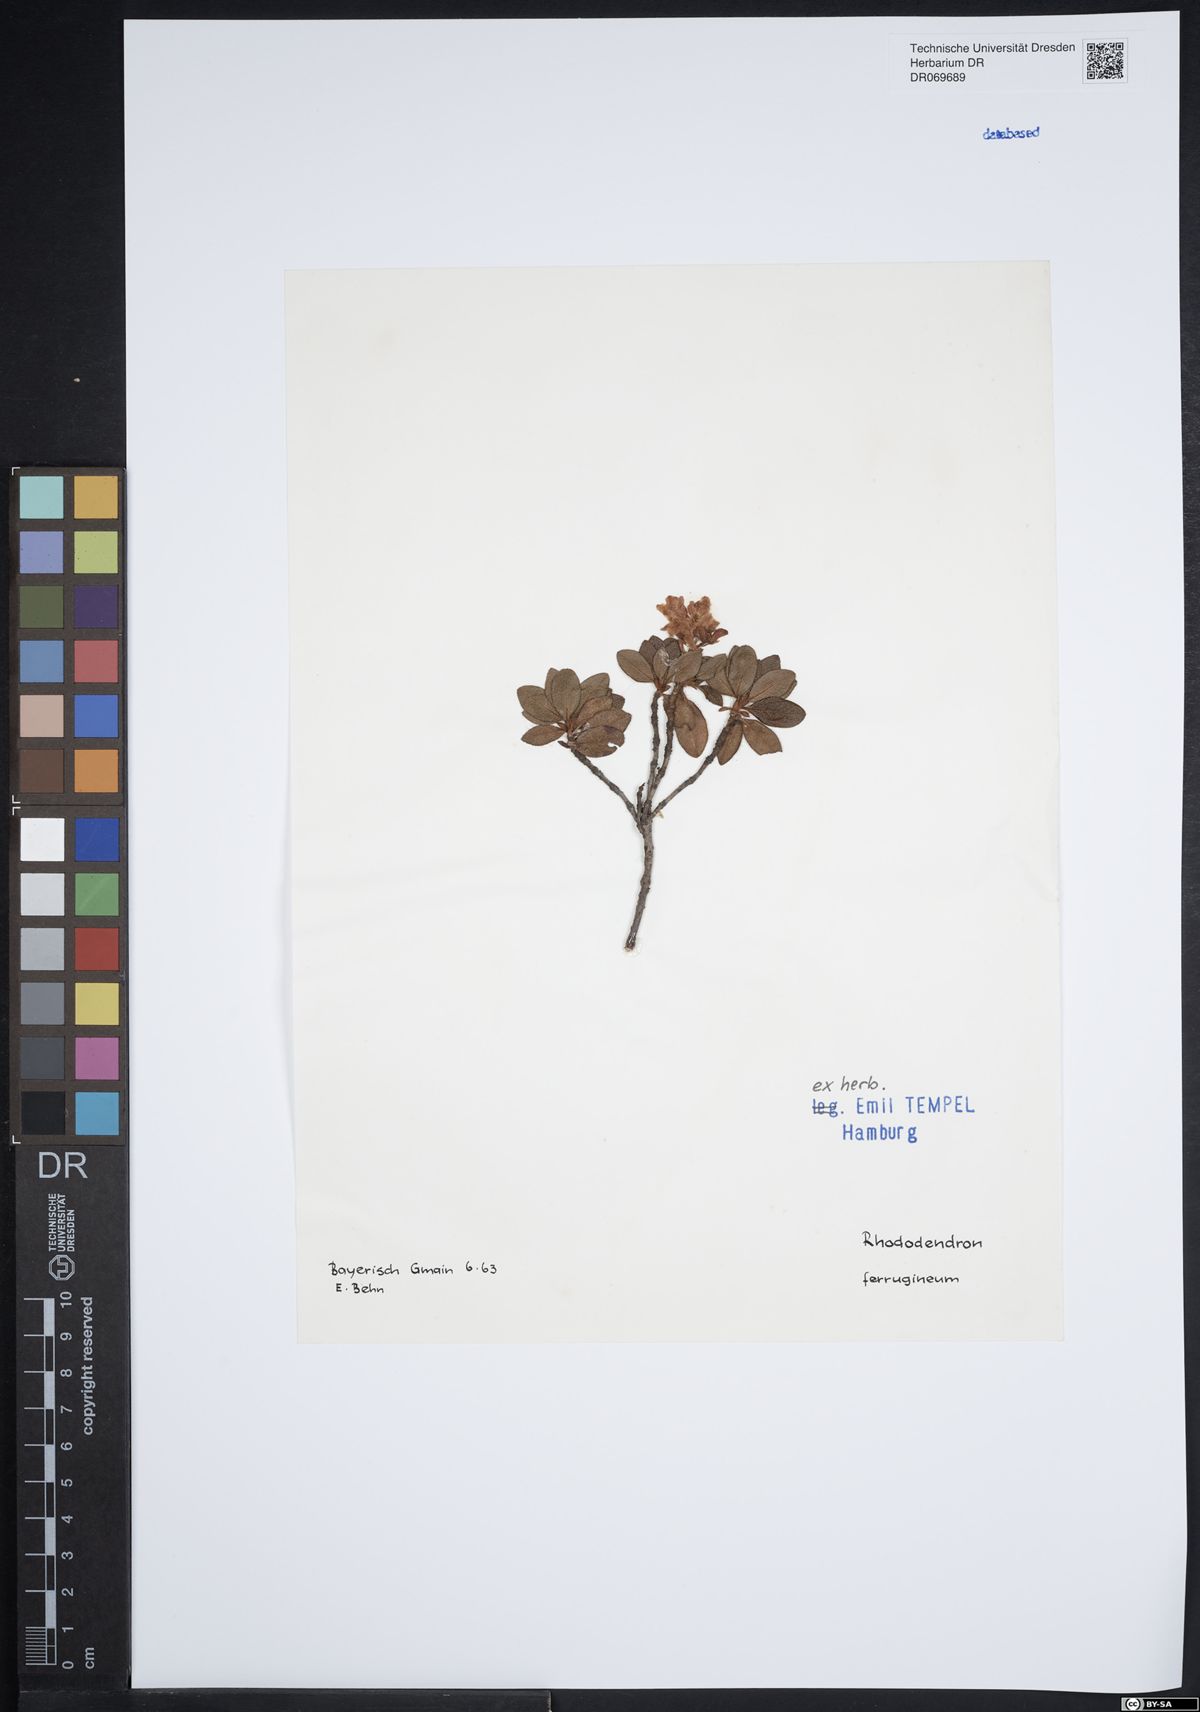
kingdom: Plantae
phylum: Tracheophyta
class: Magnoliopsida
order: Ericales
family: Ericaceae
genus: Rhododendron
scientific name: Rhododendron ferrugineum
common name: Alpenrose
